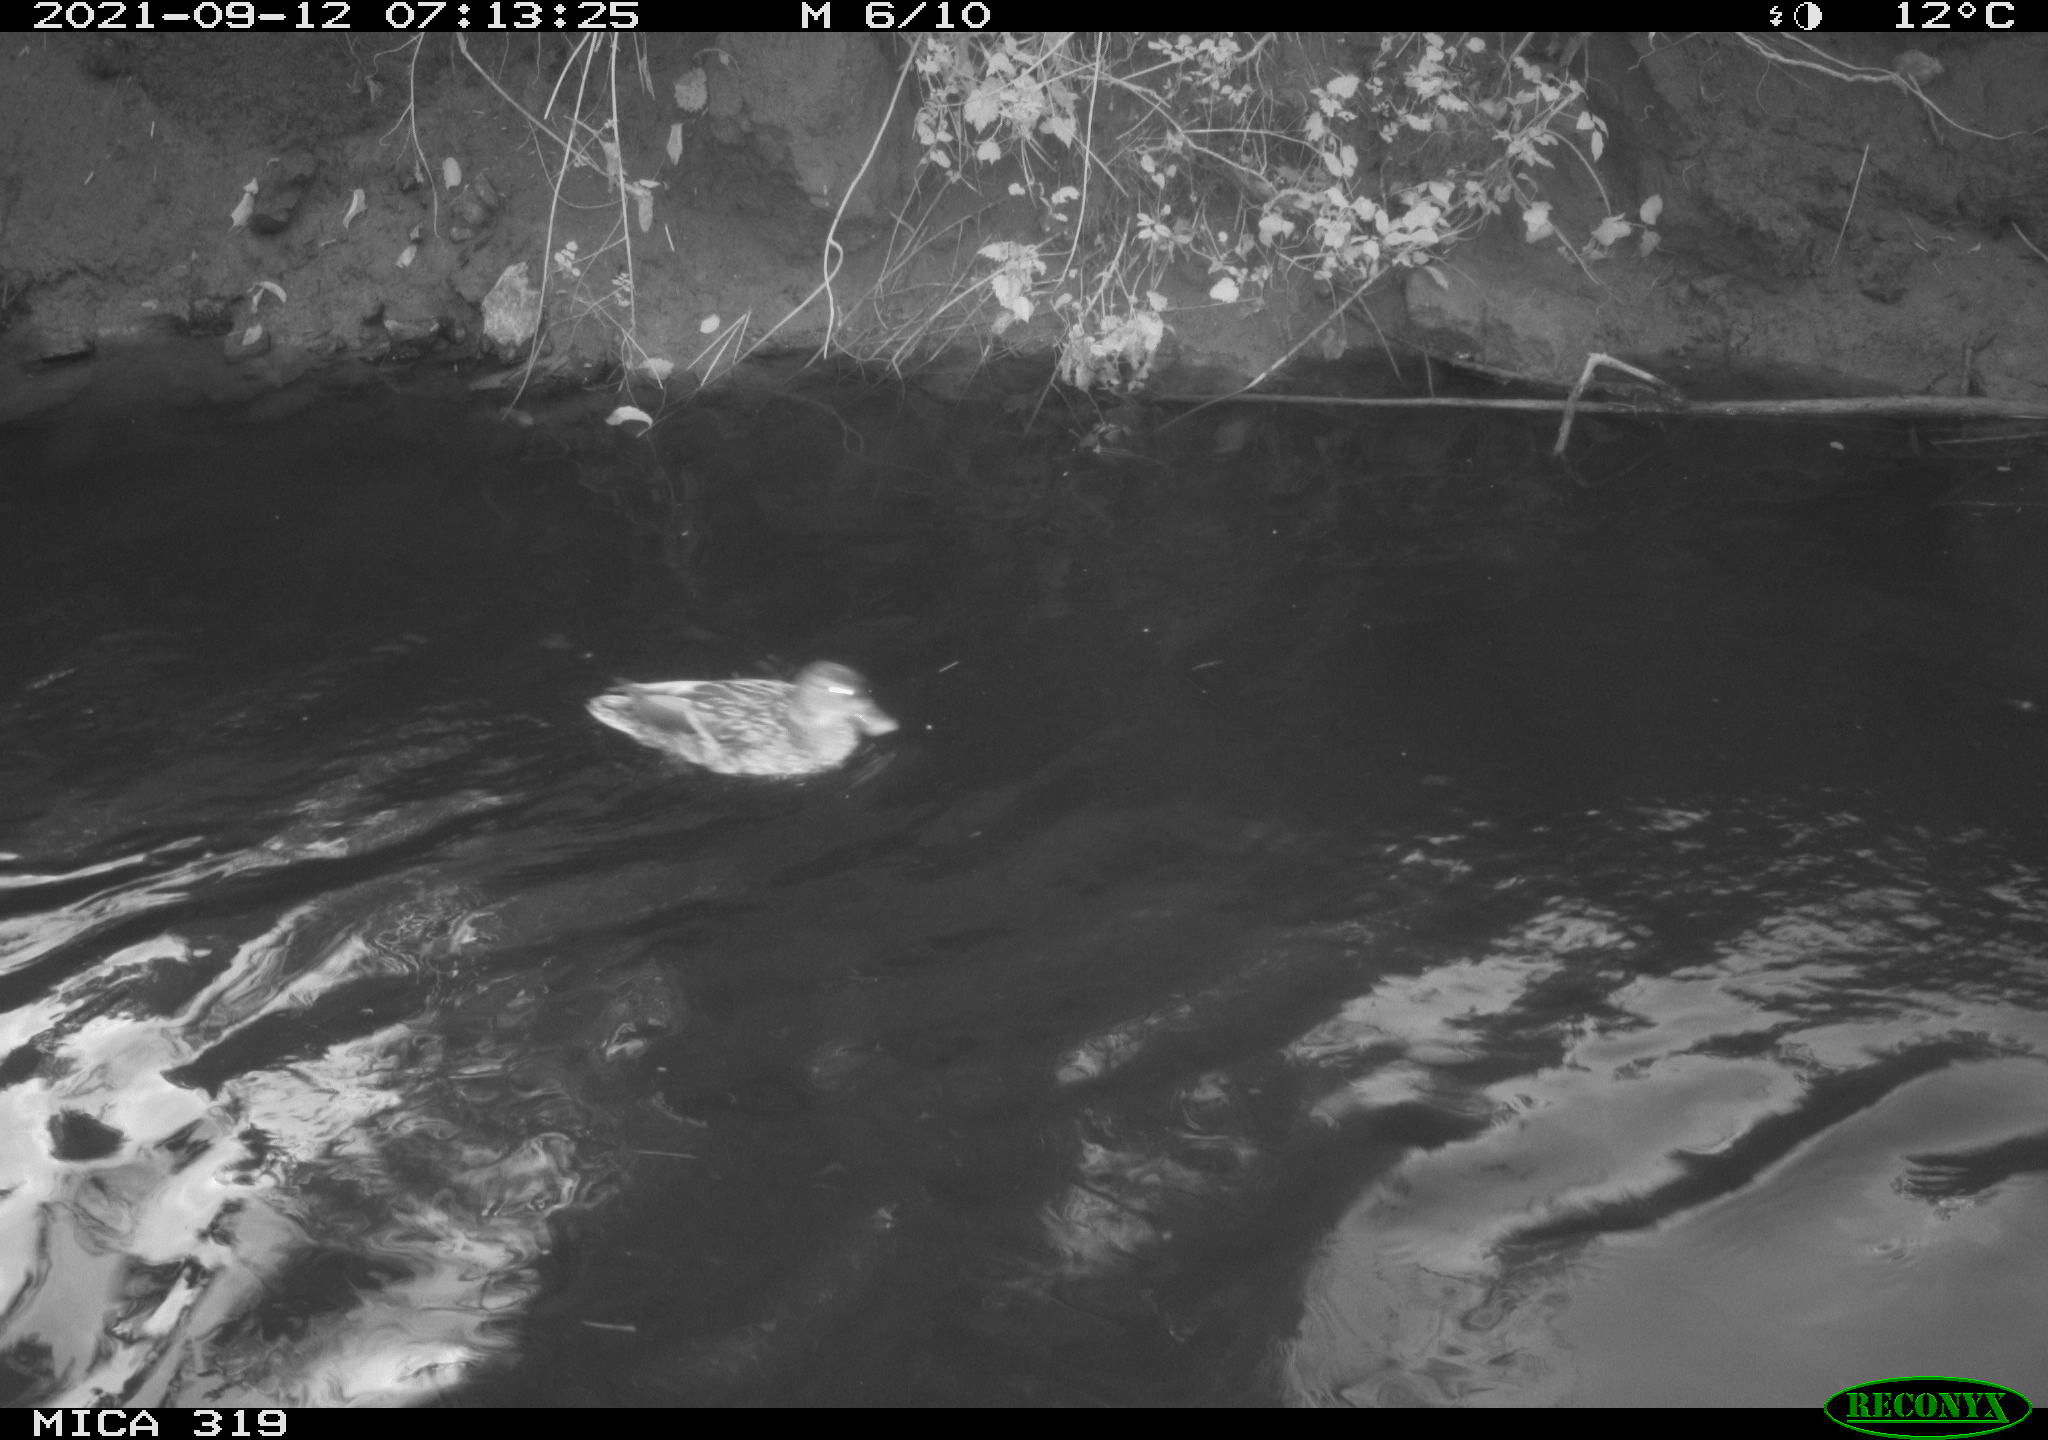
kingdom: Animalia
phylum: Chordata
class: Aves
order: Anseriformes
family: Anatidae
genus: Anas
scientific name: Anas platyrhynchos
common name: Mallard
